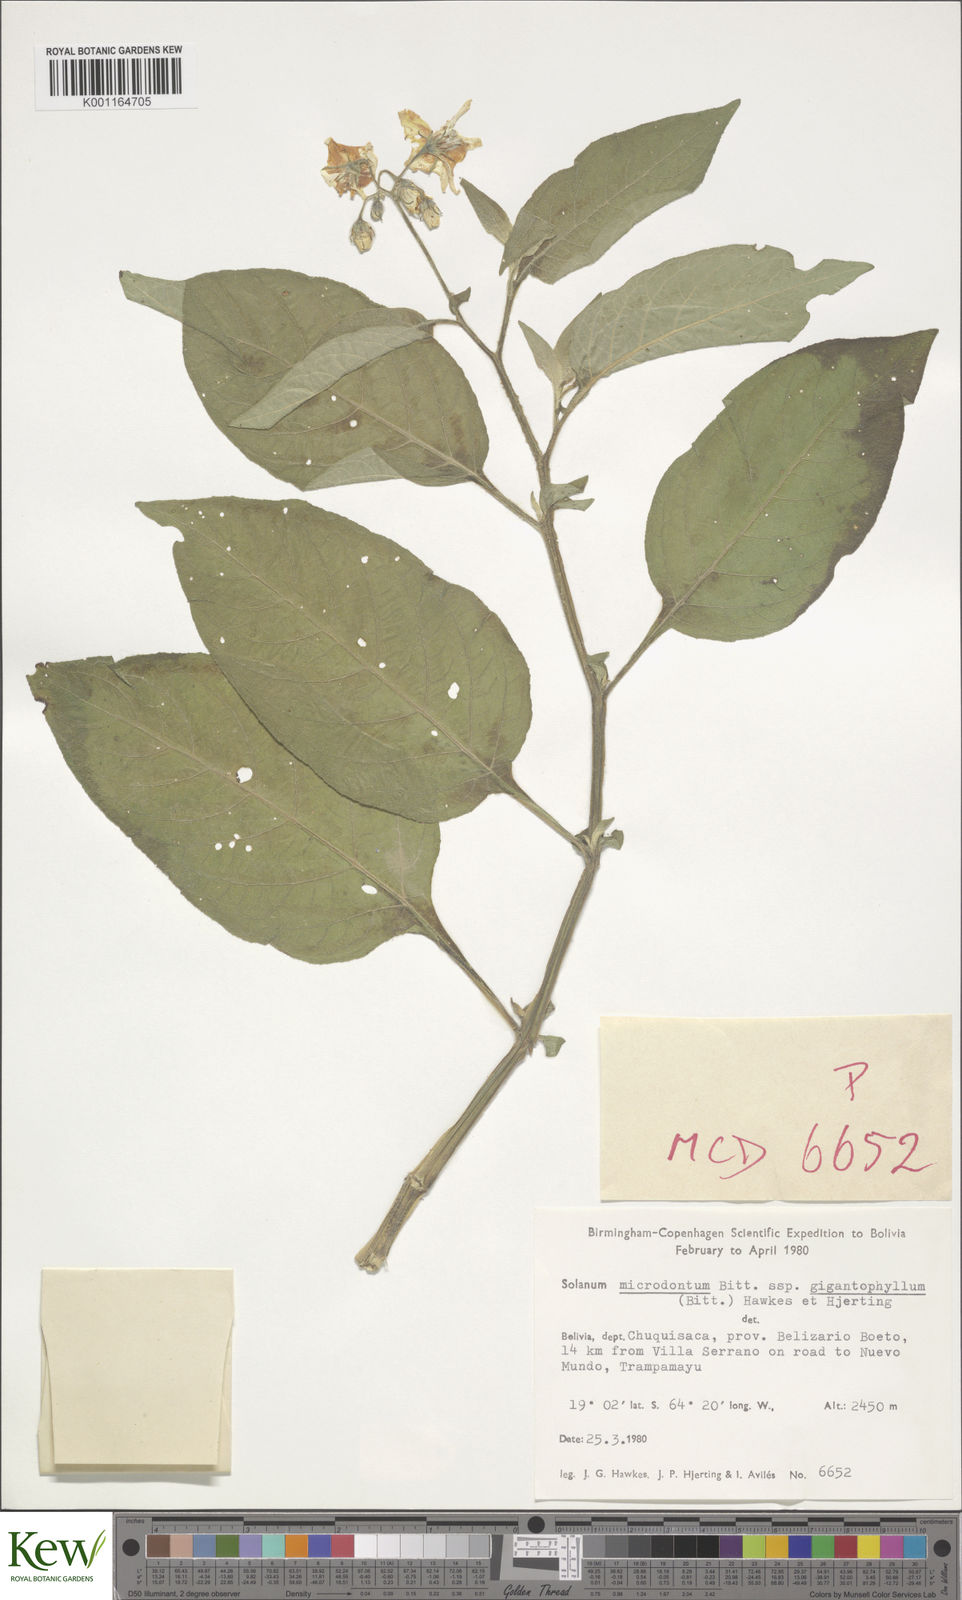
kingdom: Plantae
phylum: Tracheophyta
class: Magnoliopsida
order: Solanales
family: Solanaceae
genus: Solanum
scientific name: Solanum microdontum
